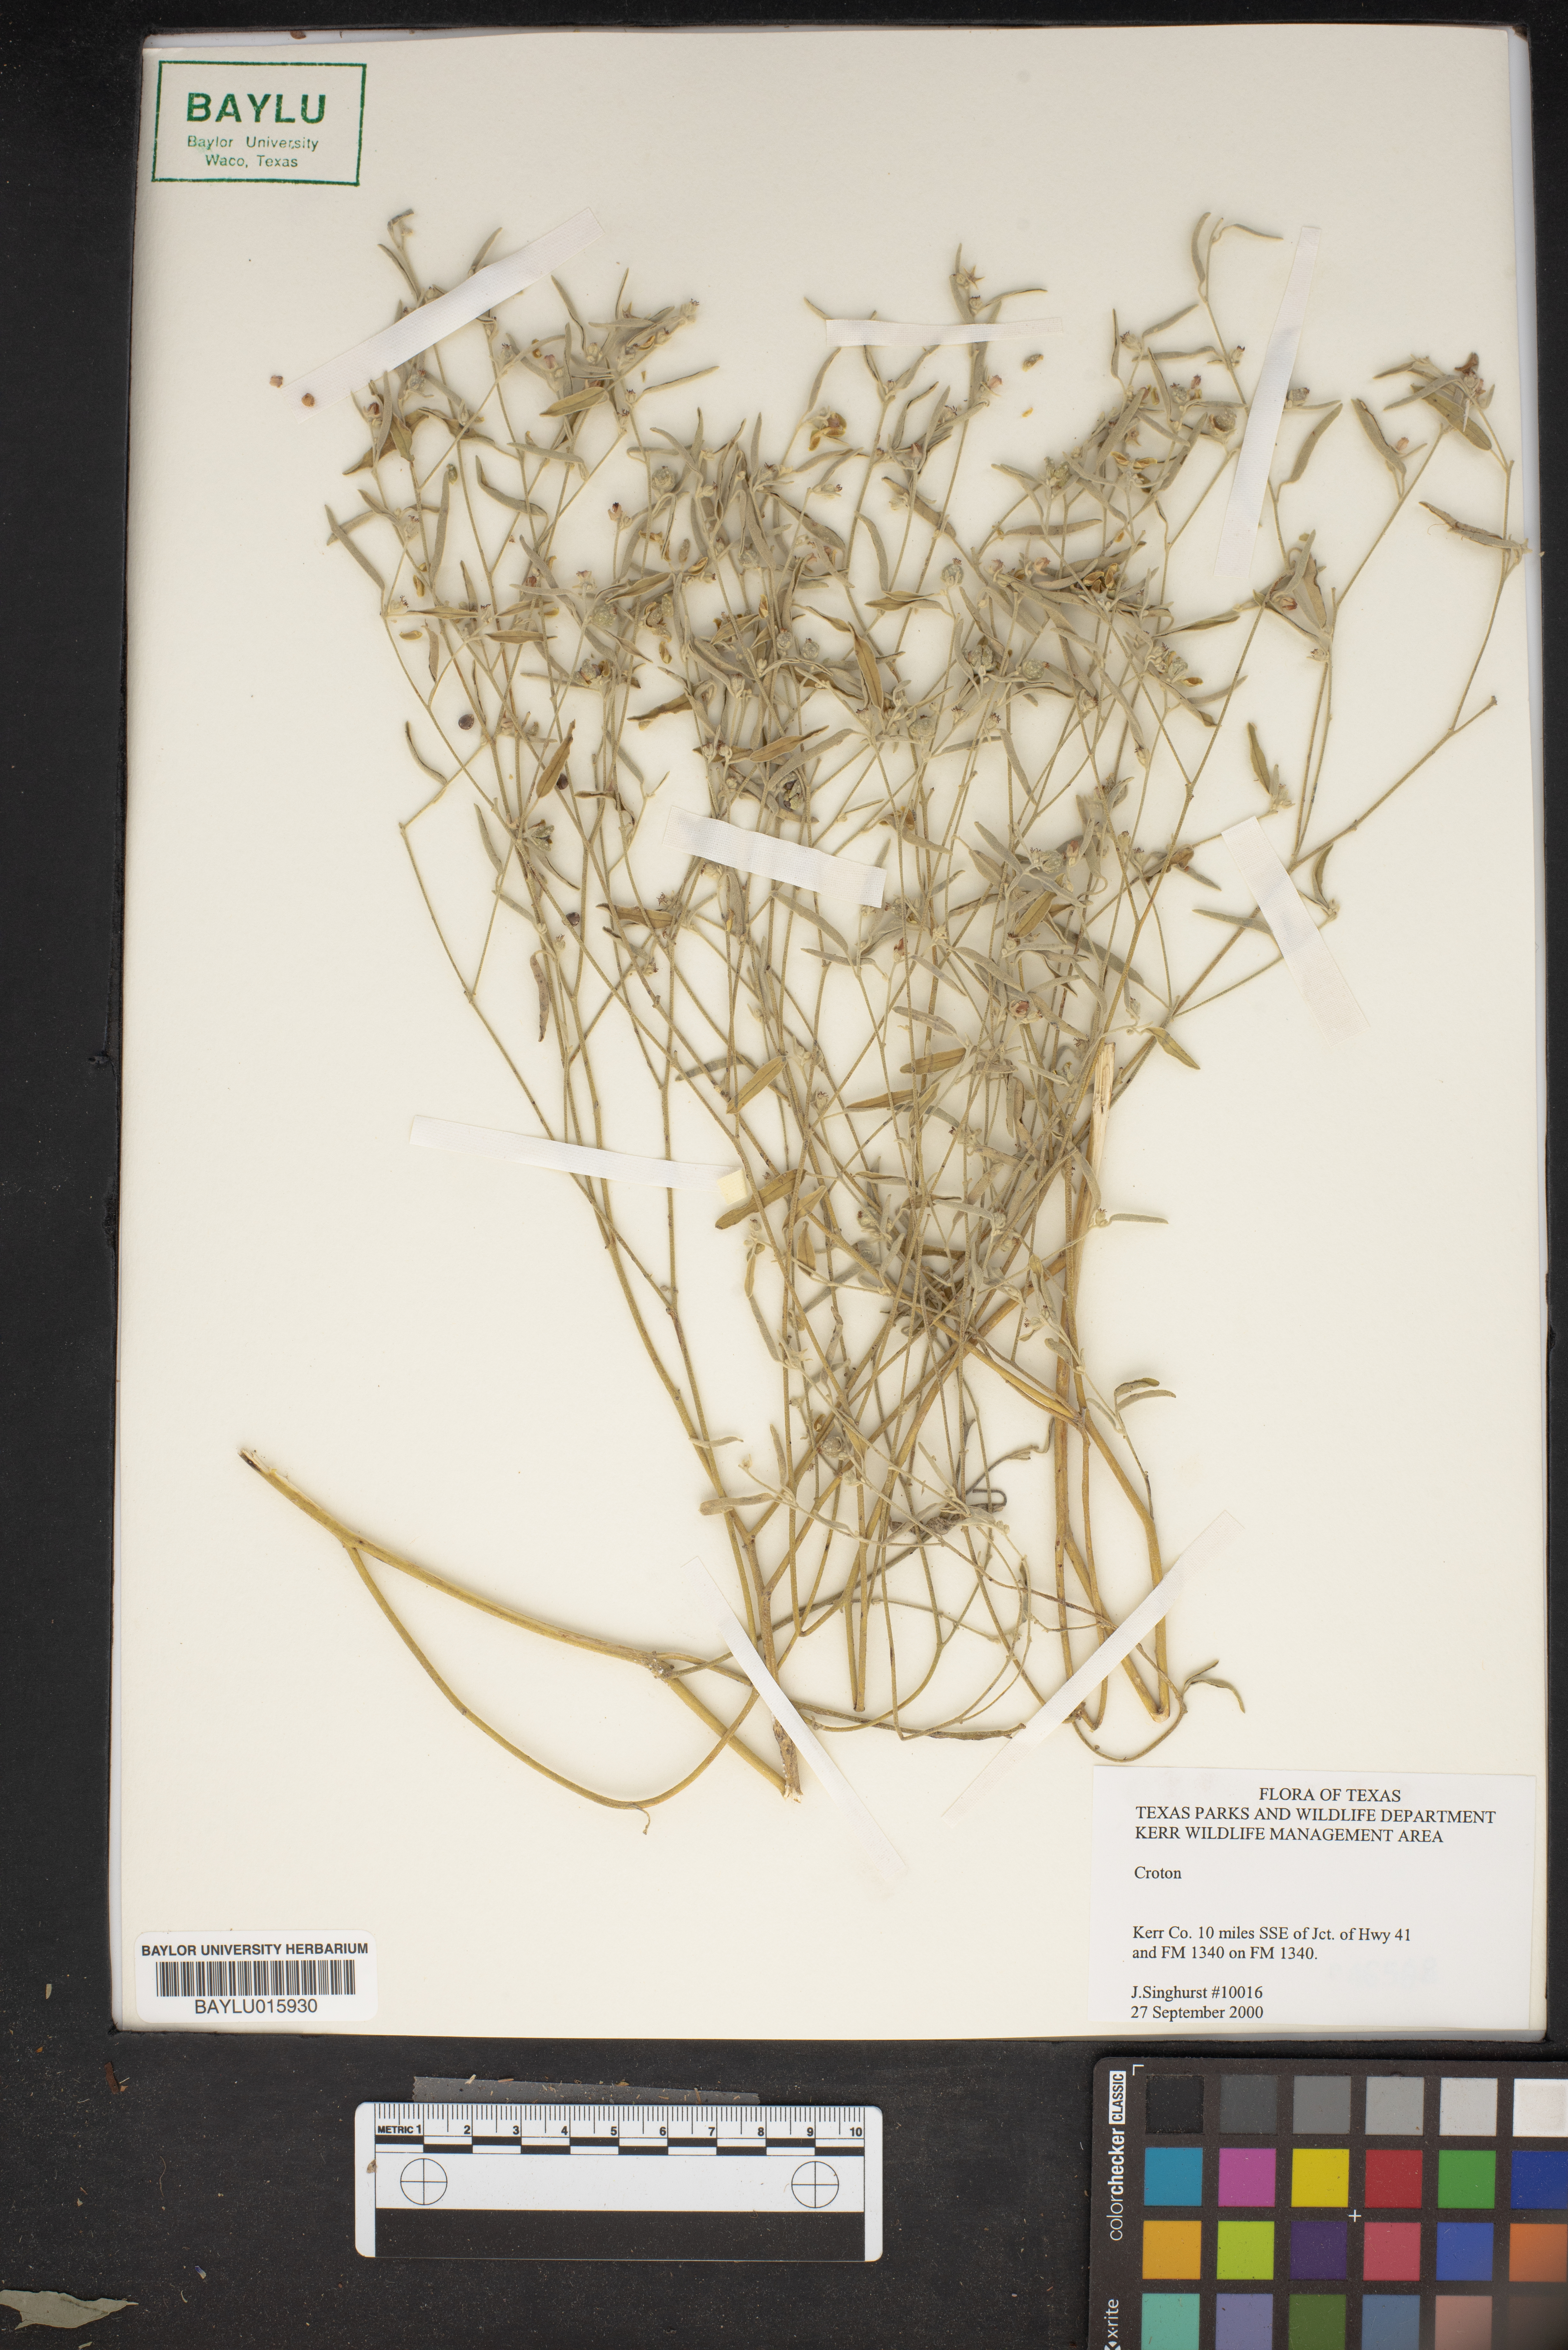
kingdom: Plantae
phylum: Tracheophyta
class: Magnoliopsida
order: Malpighiales
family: Euphorbiaceae
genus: Croton
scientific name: Croton
